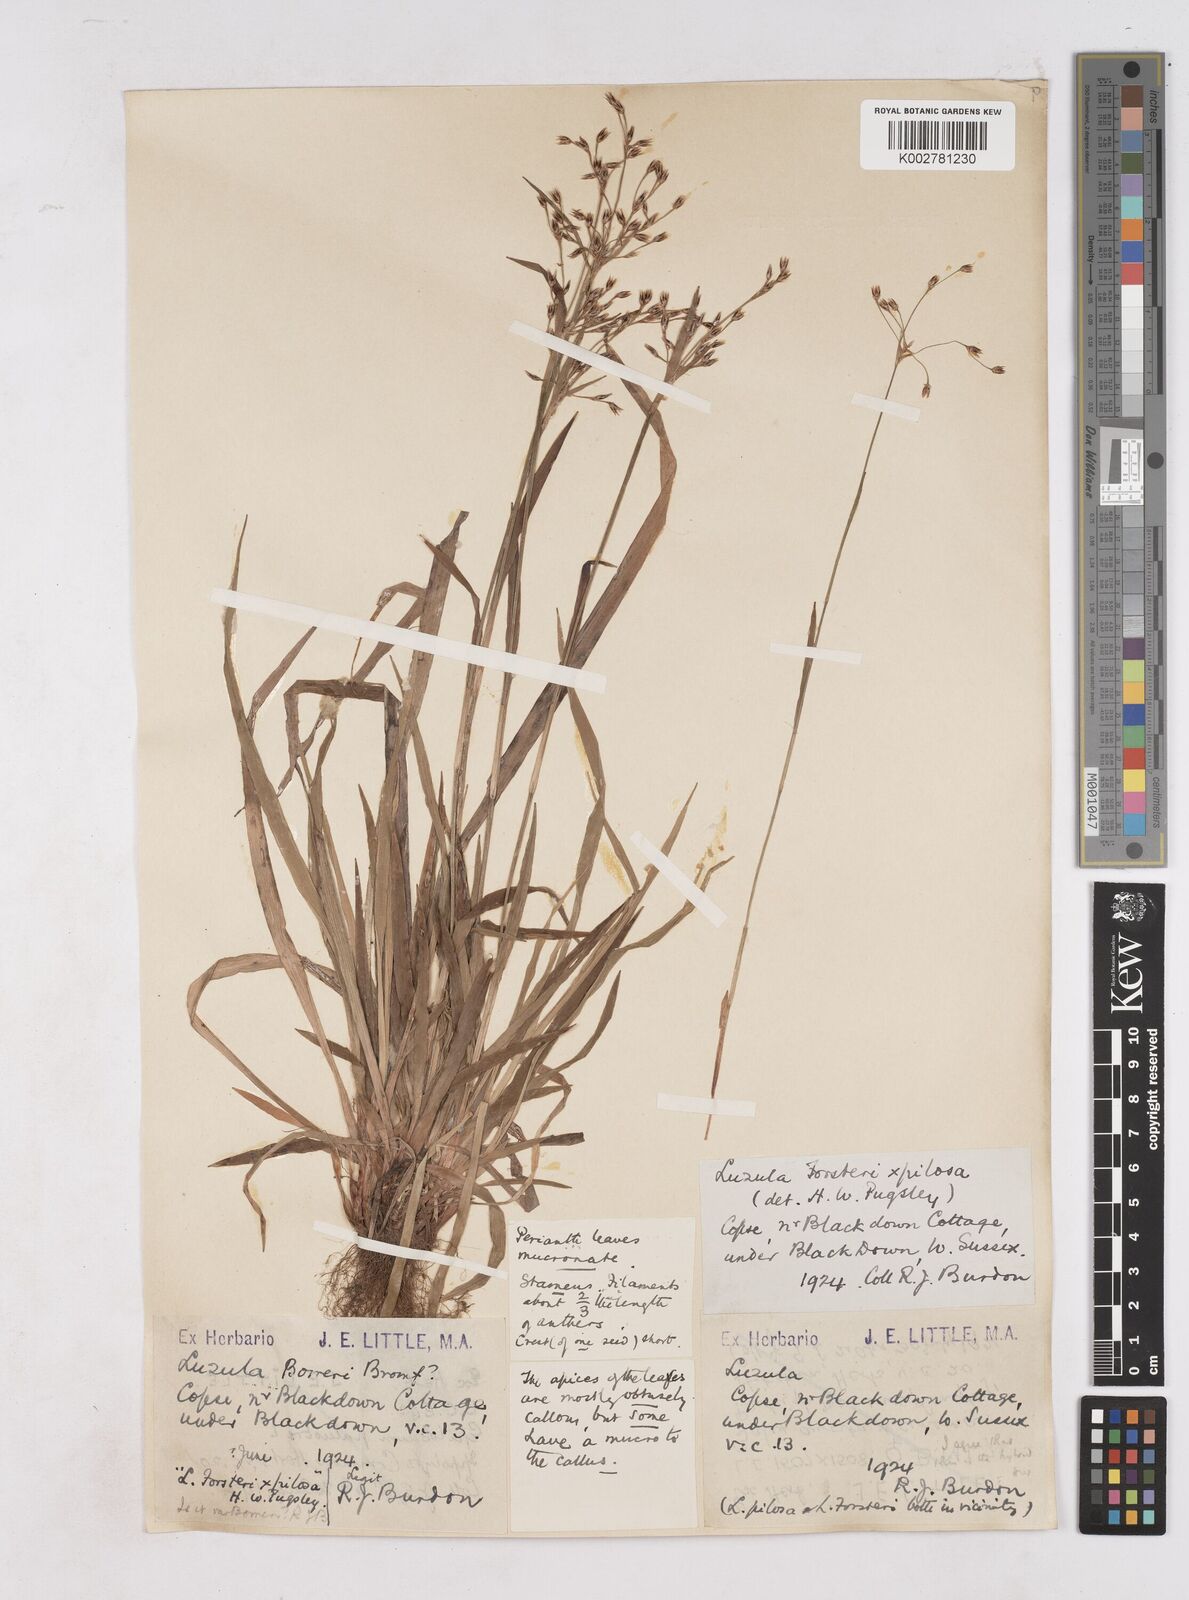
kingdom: Plantae
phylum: Tracheophyta
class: Liliopsida
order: Poales
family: Juncaceae
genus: Luzula
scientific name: Luzula forsteri
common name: Southern wood-rush
